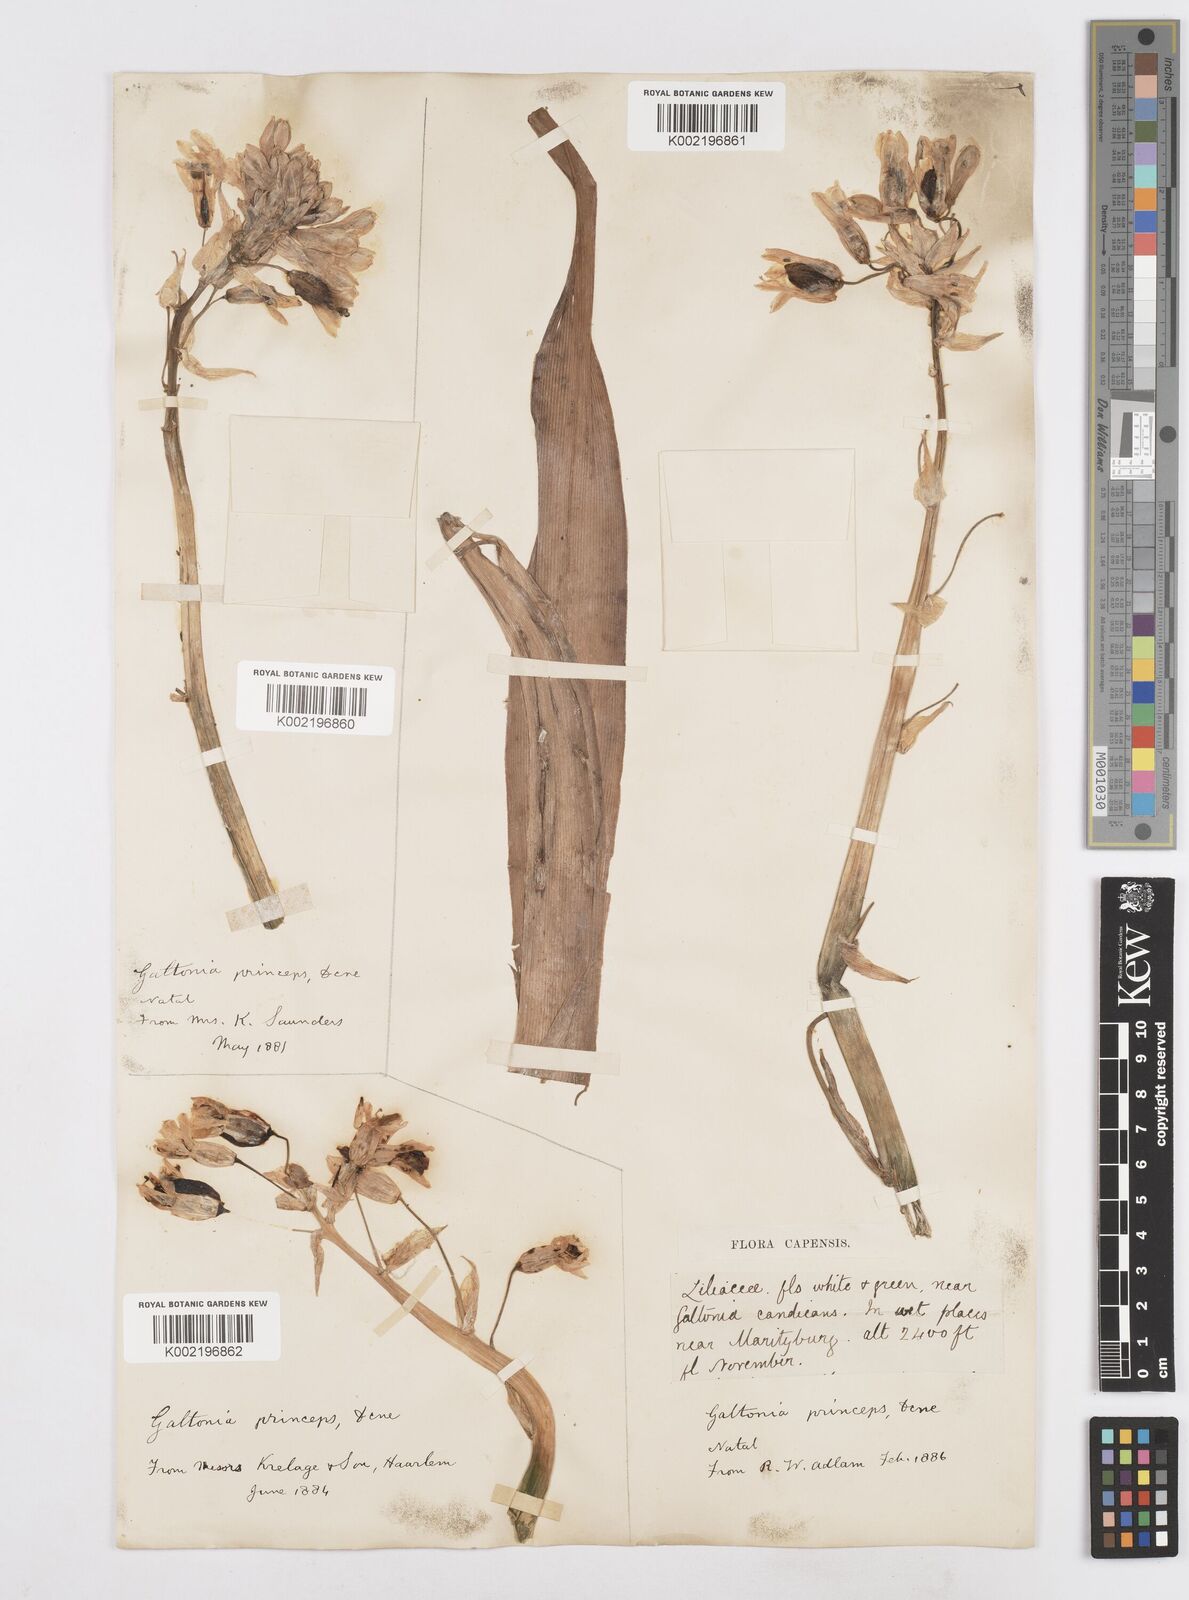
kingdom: Plantae
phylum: Tracheophyta
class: Liliopsida
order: Asparagales
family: Asparagaceae
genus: Ornithogalum
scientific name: Ornithogalum princeps
